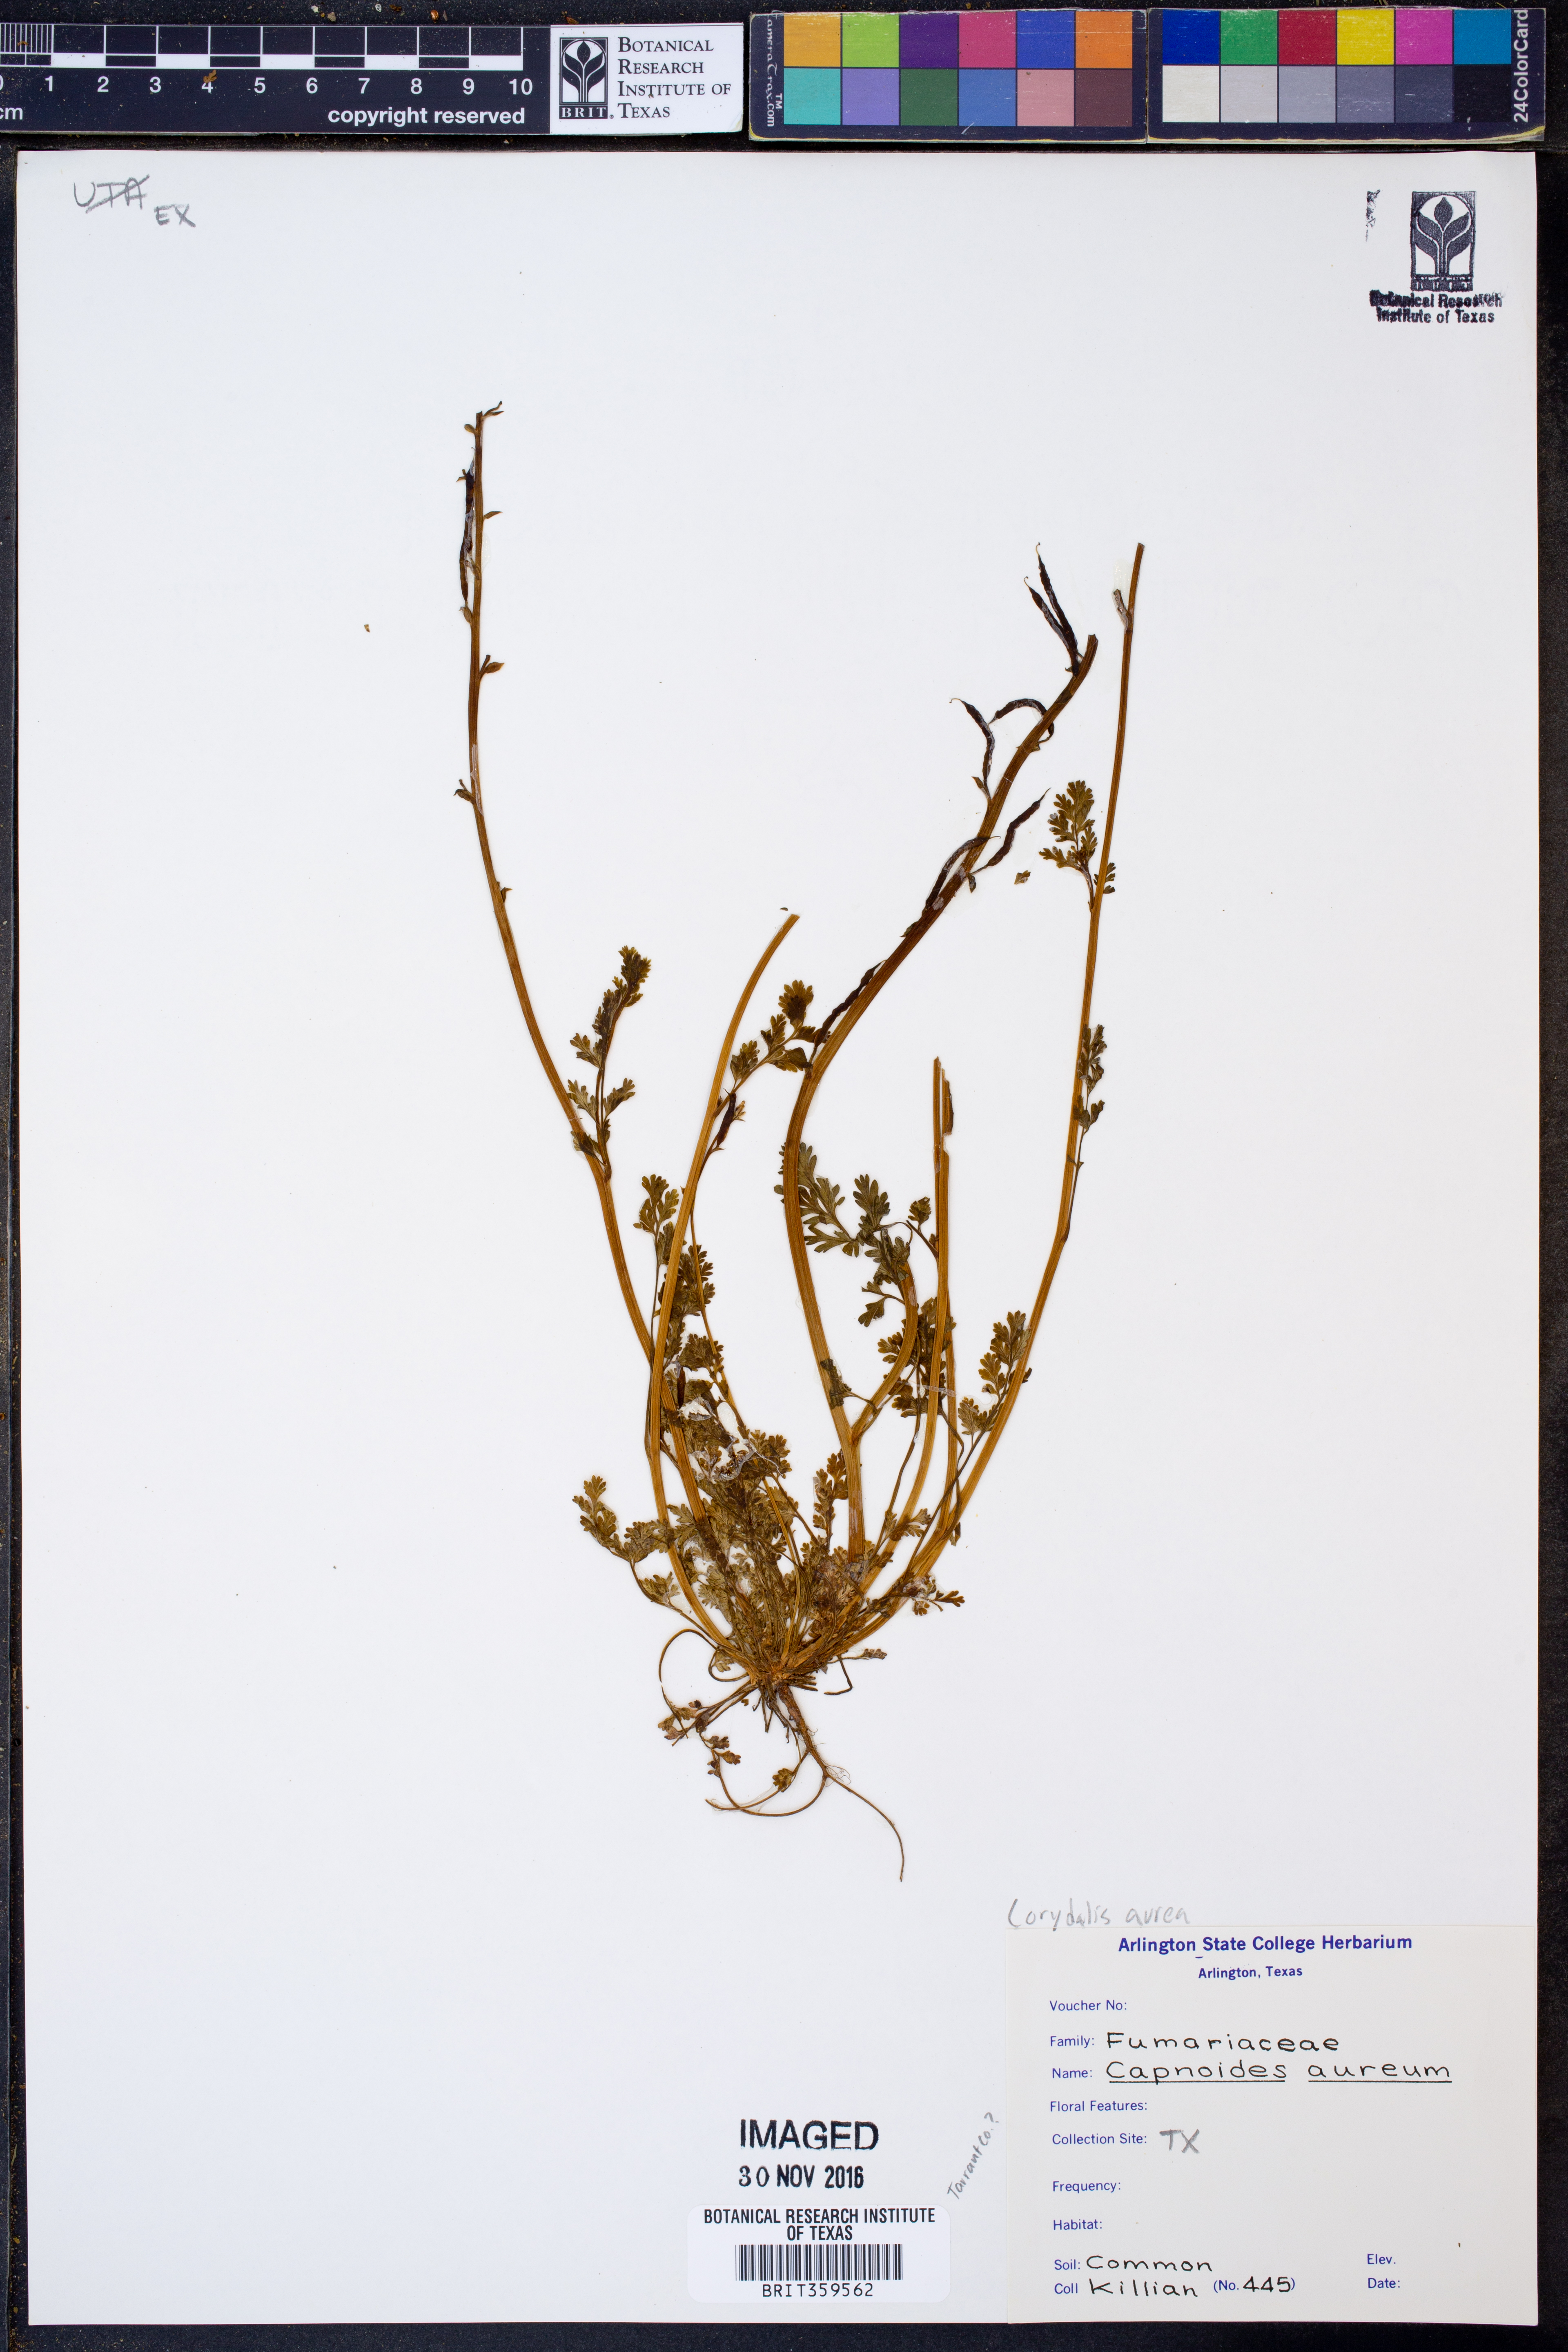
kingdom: Plantae
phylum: Tracheophyta
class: Magnoliopsida
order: Ranunculales
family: Papaveraceae
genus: Corydalis
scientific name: Corydalis aurea
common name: Golden corydalis
